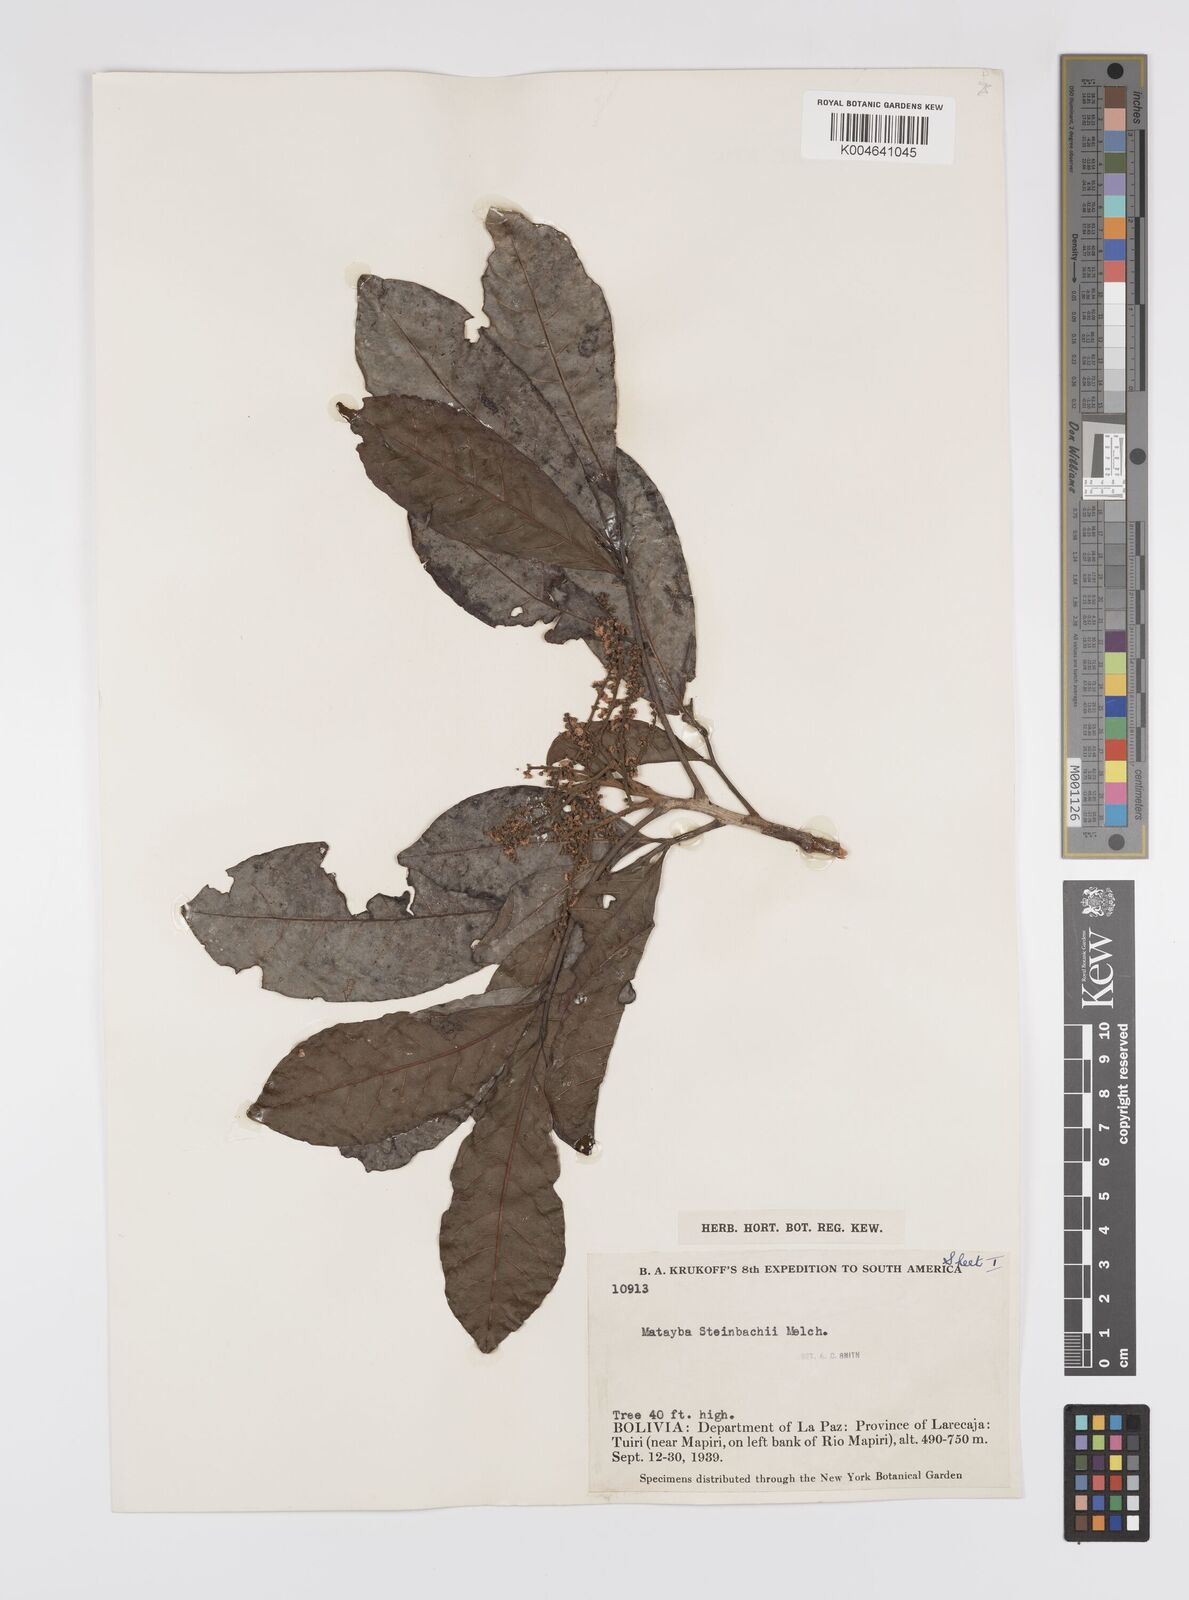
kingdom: Plantae
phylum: Tracheophyta
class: Magnoliopsida
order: Sapindales
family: Sapindaceae
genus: Matayba
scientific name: Matayba guianensis
